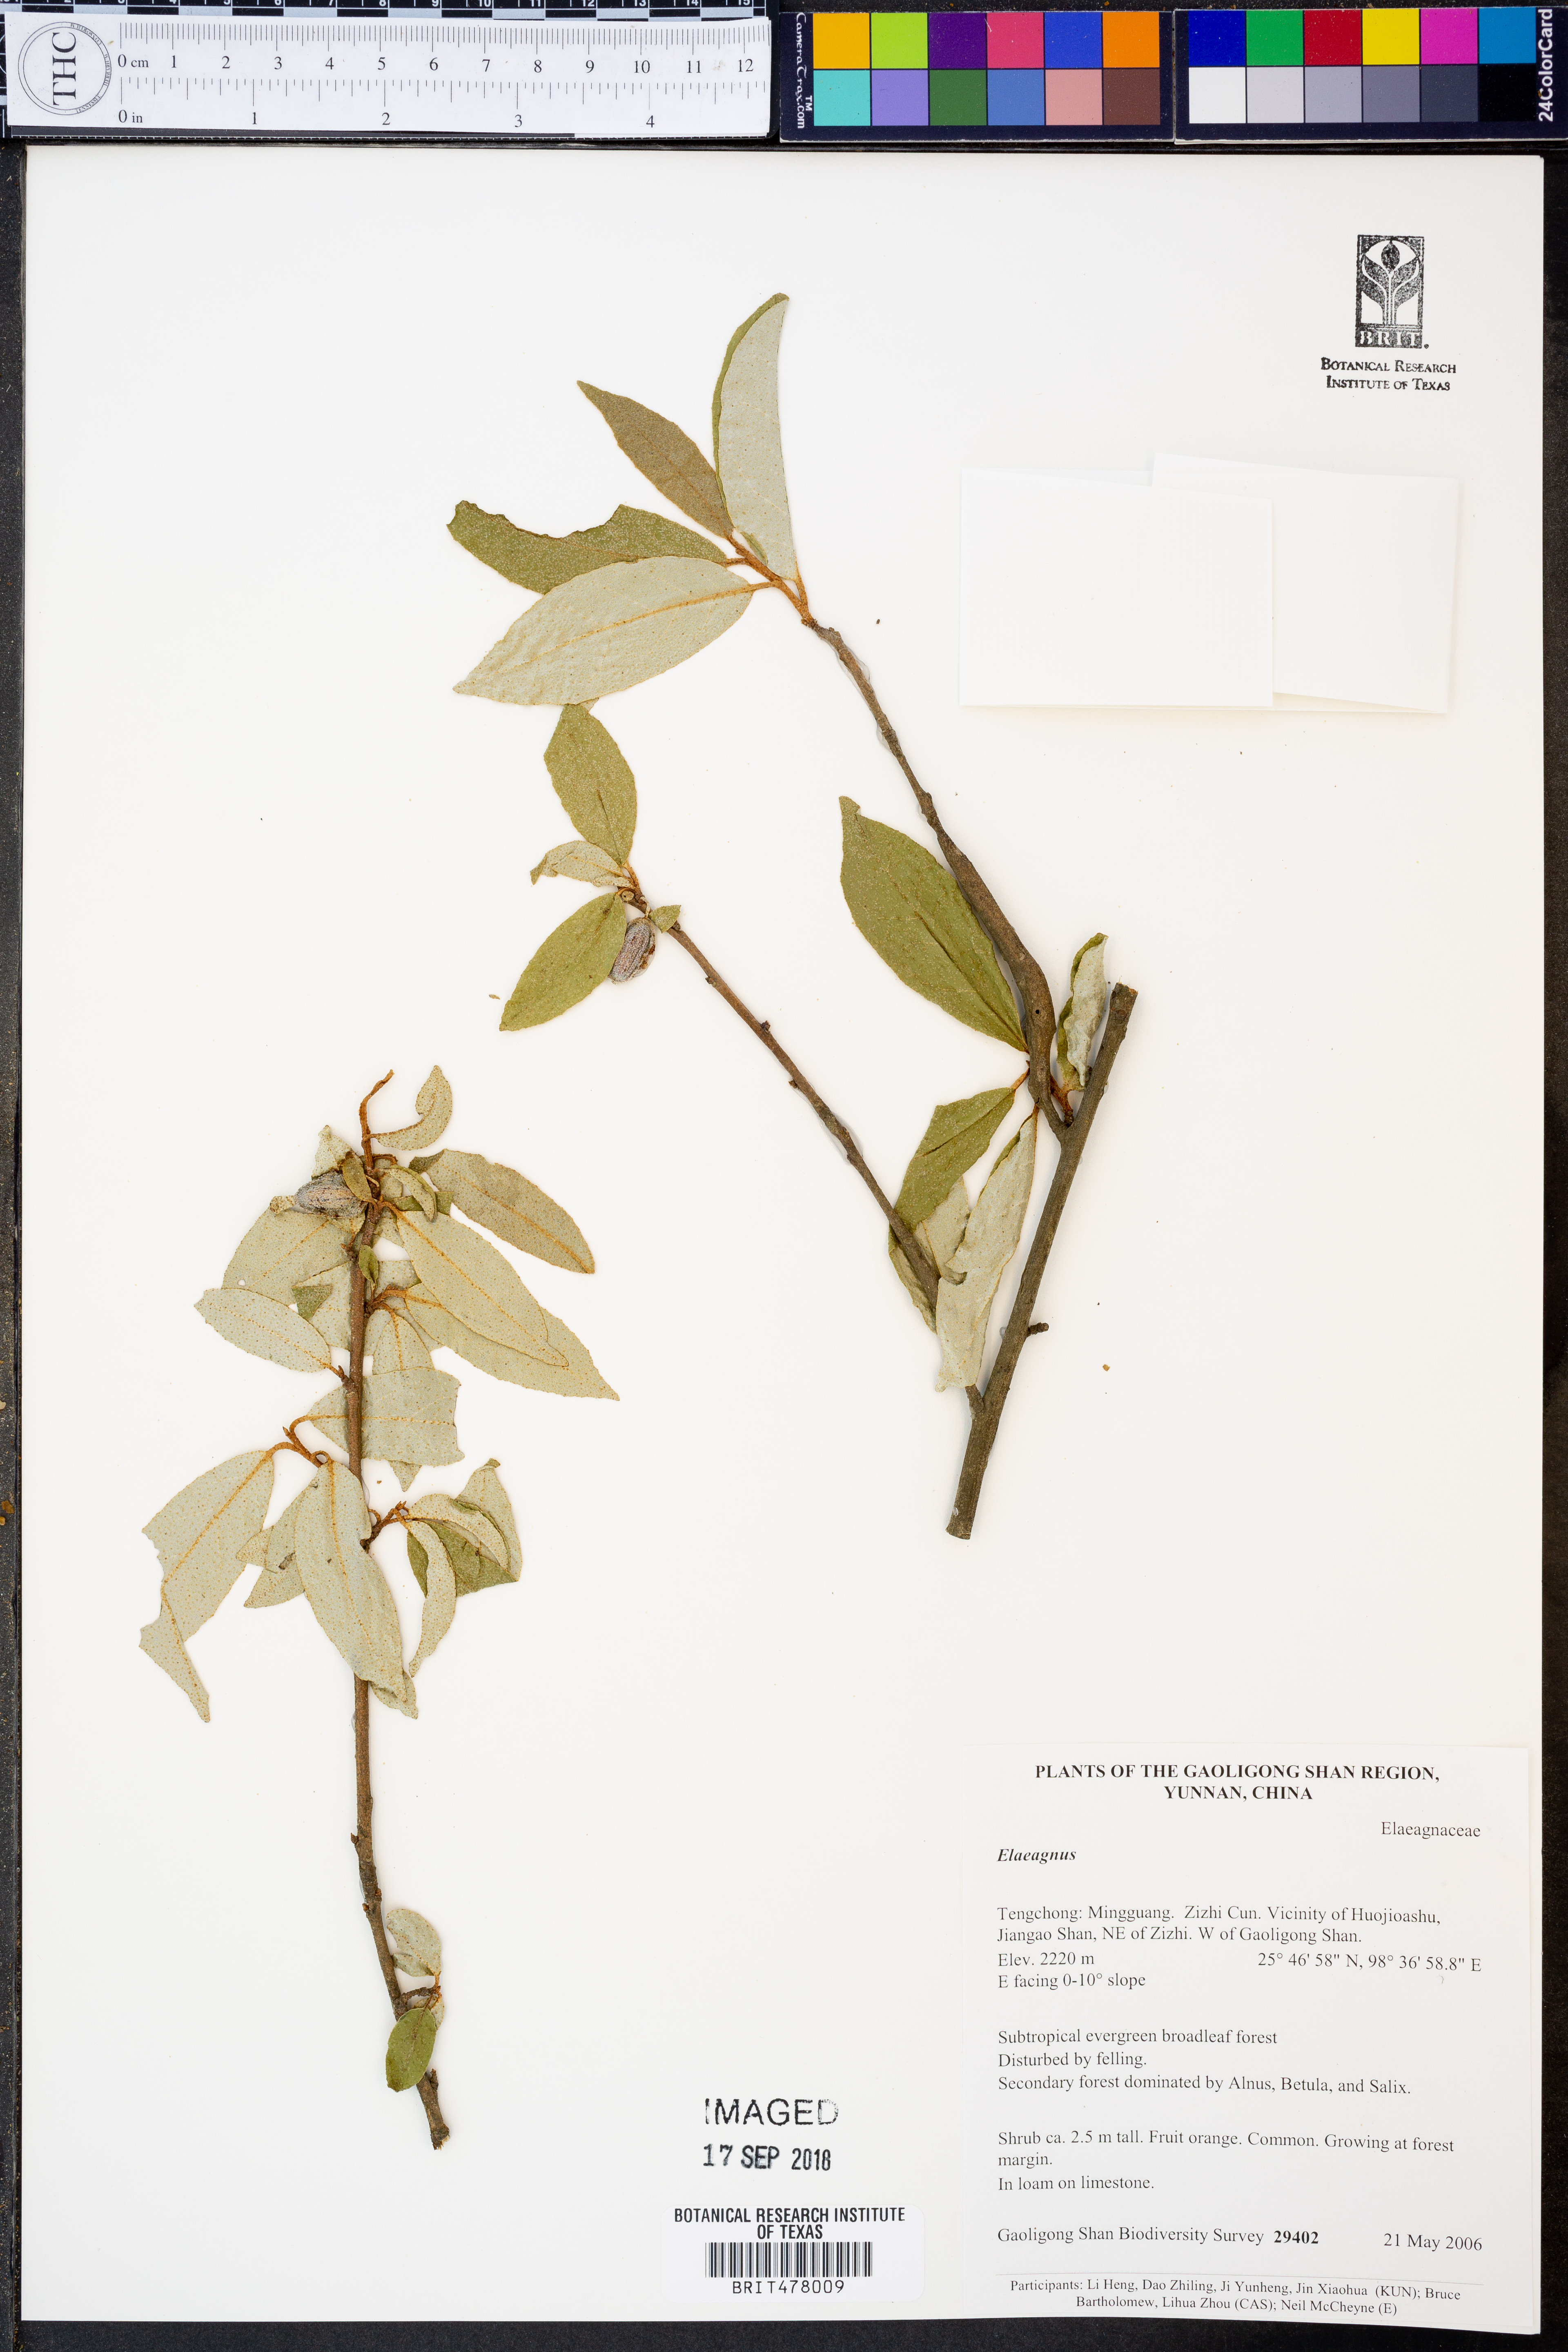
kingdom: Plantae
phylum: Tracheophyta
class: Magnoliopsida
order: Rosales
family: Elaeagnaceae
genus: Elaeagnus
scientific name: Elaeagnus
